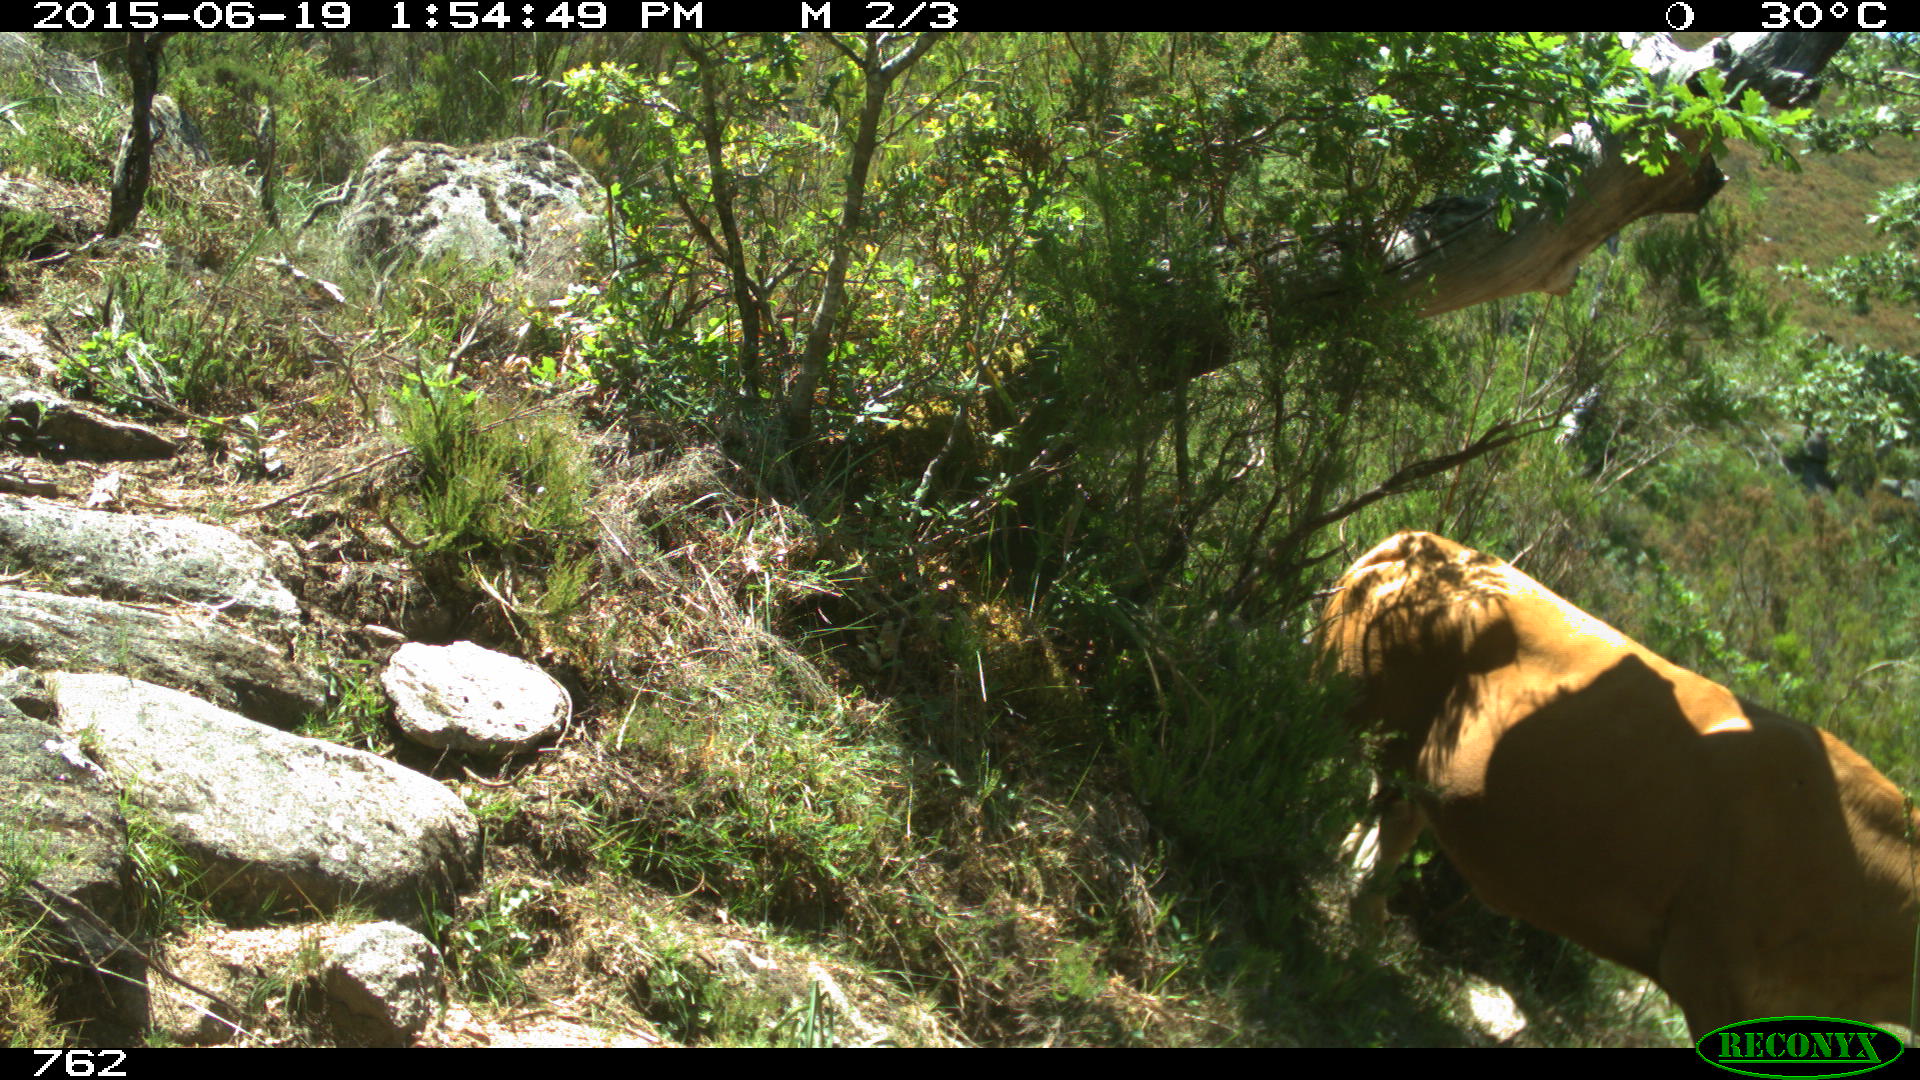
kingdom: Animalia
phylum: Chordata
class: Mammalia
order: Artiodactyla
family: Bovidae
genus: Bos
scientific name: Bos taurus
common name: Domesticated cattle
